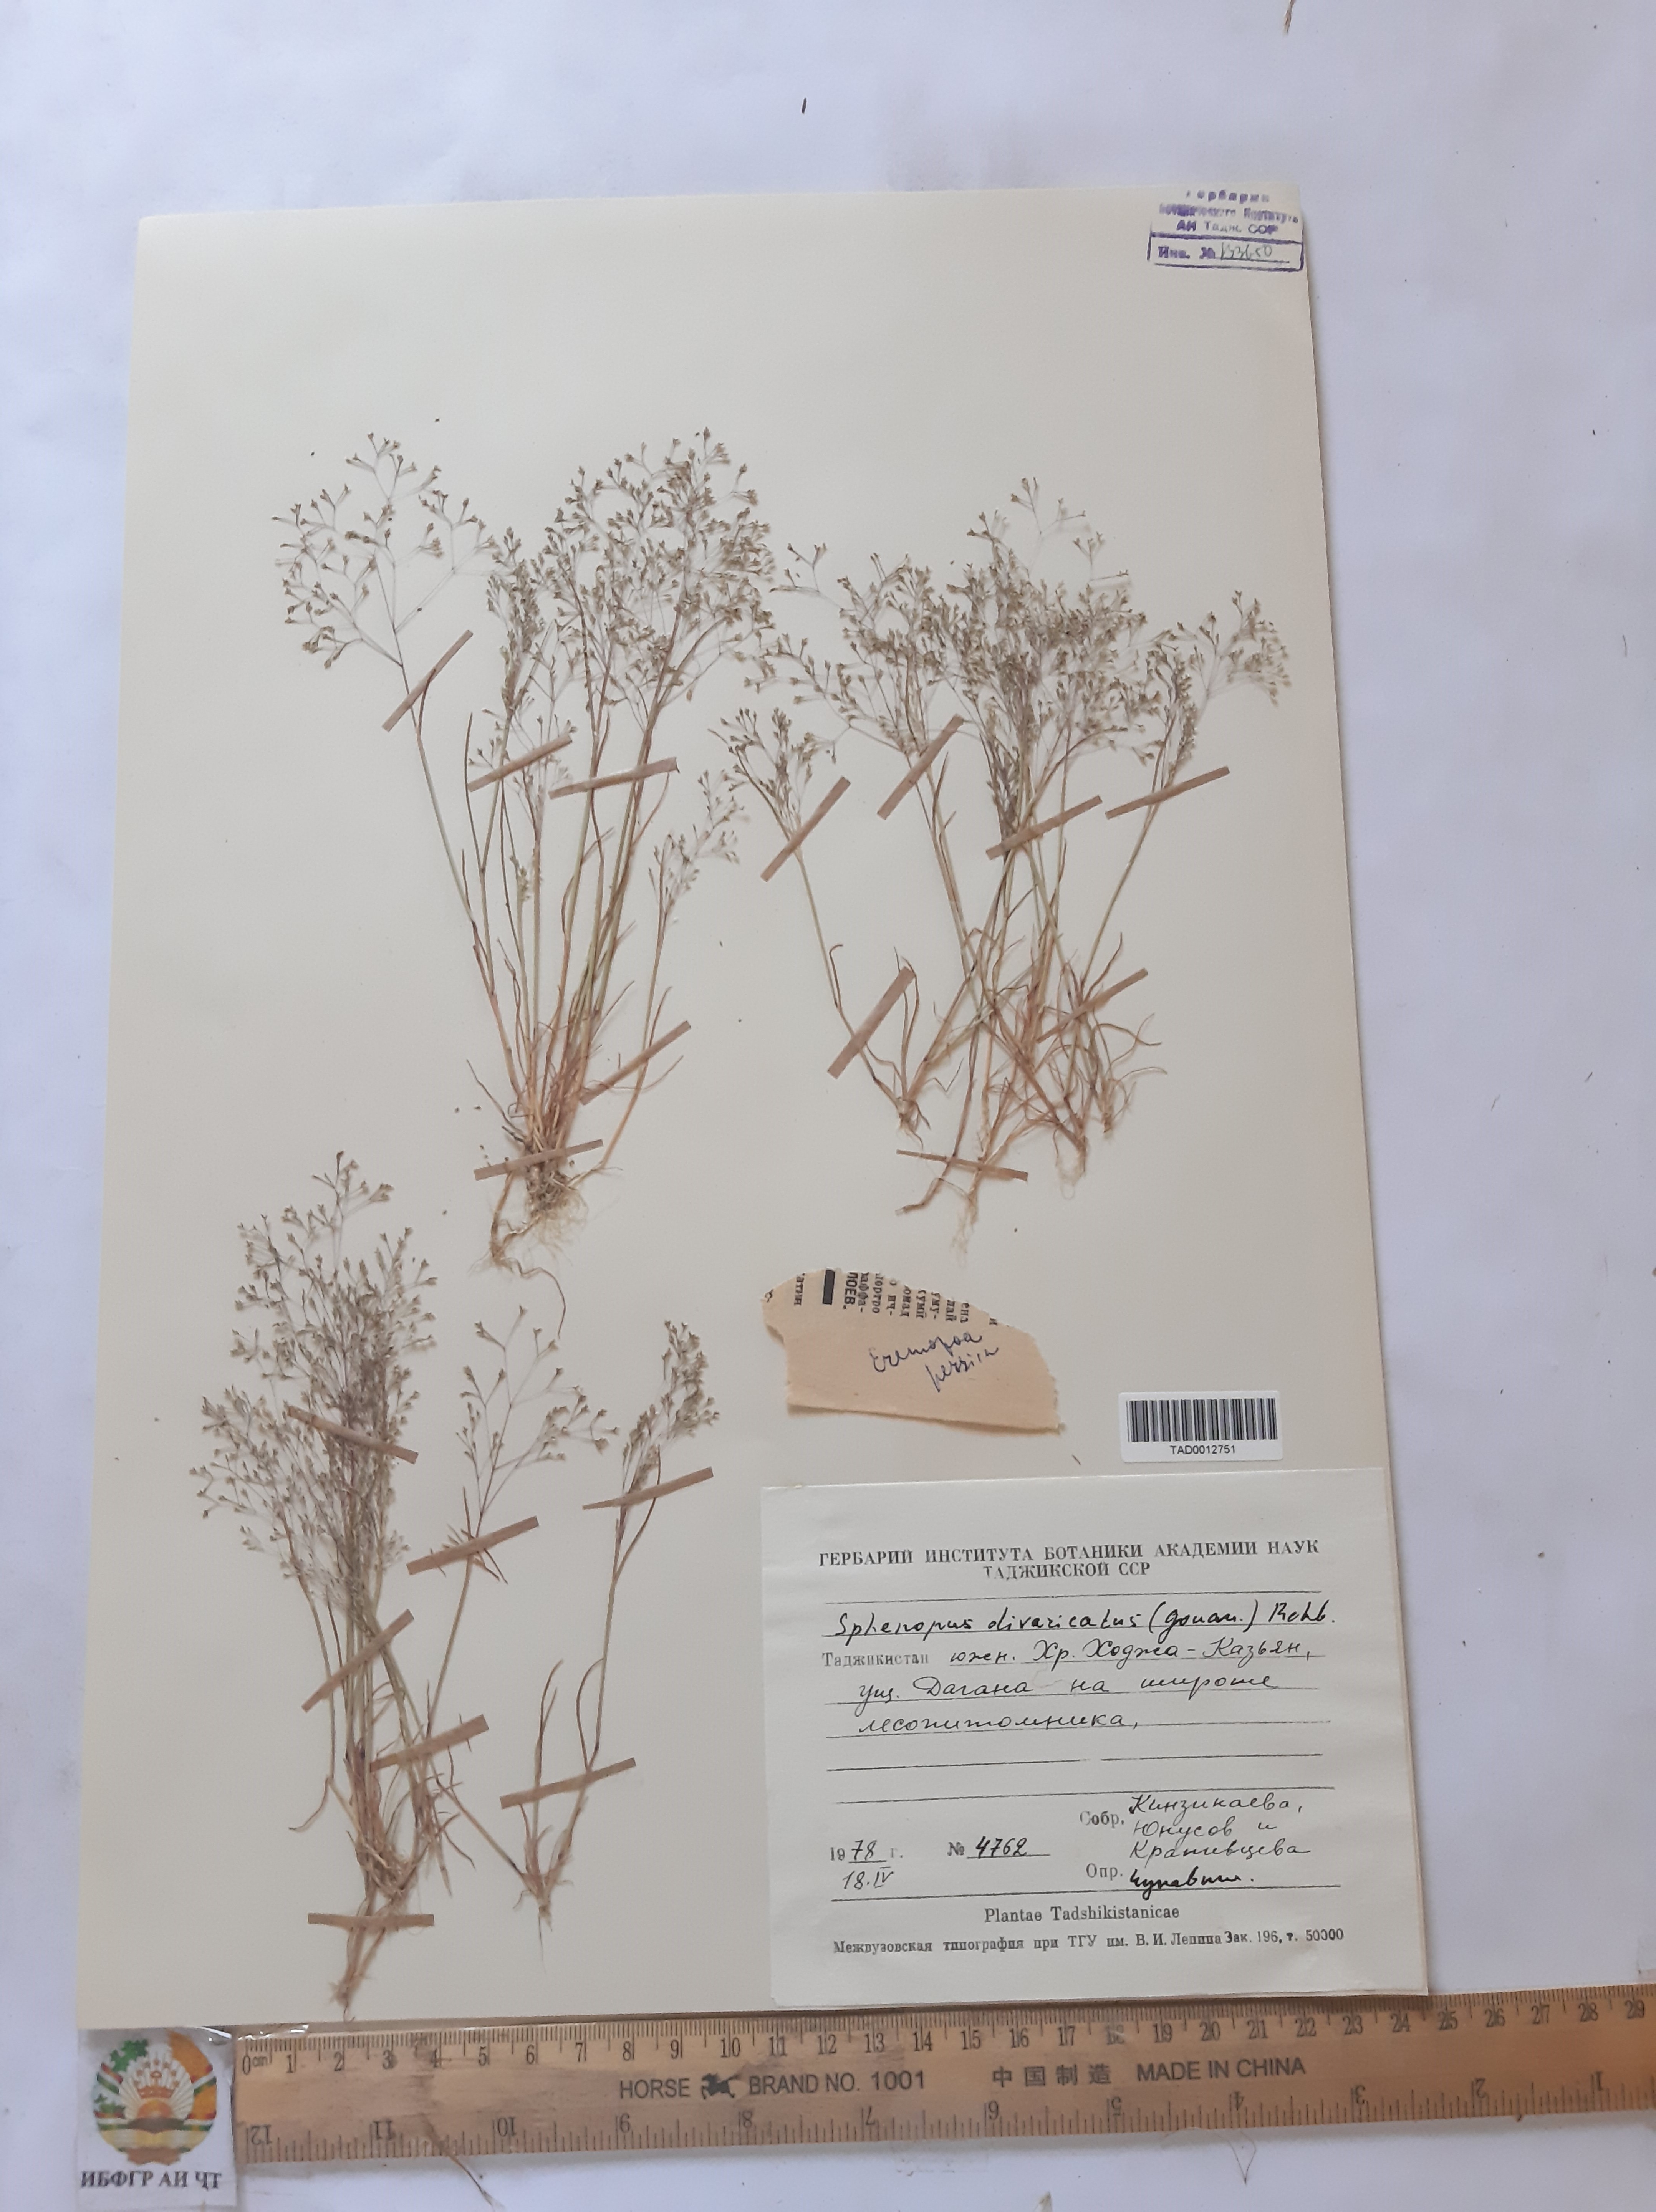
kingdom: Plantae
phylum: Tracheophyta
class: Liliopsida
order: Poales
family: Poaceae
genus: Sphenopus
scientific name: Sphenopus divaricatus
